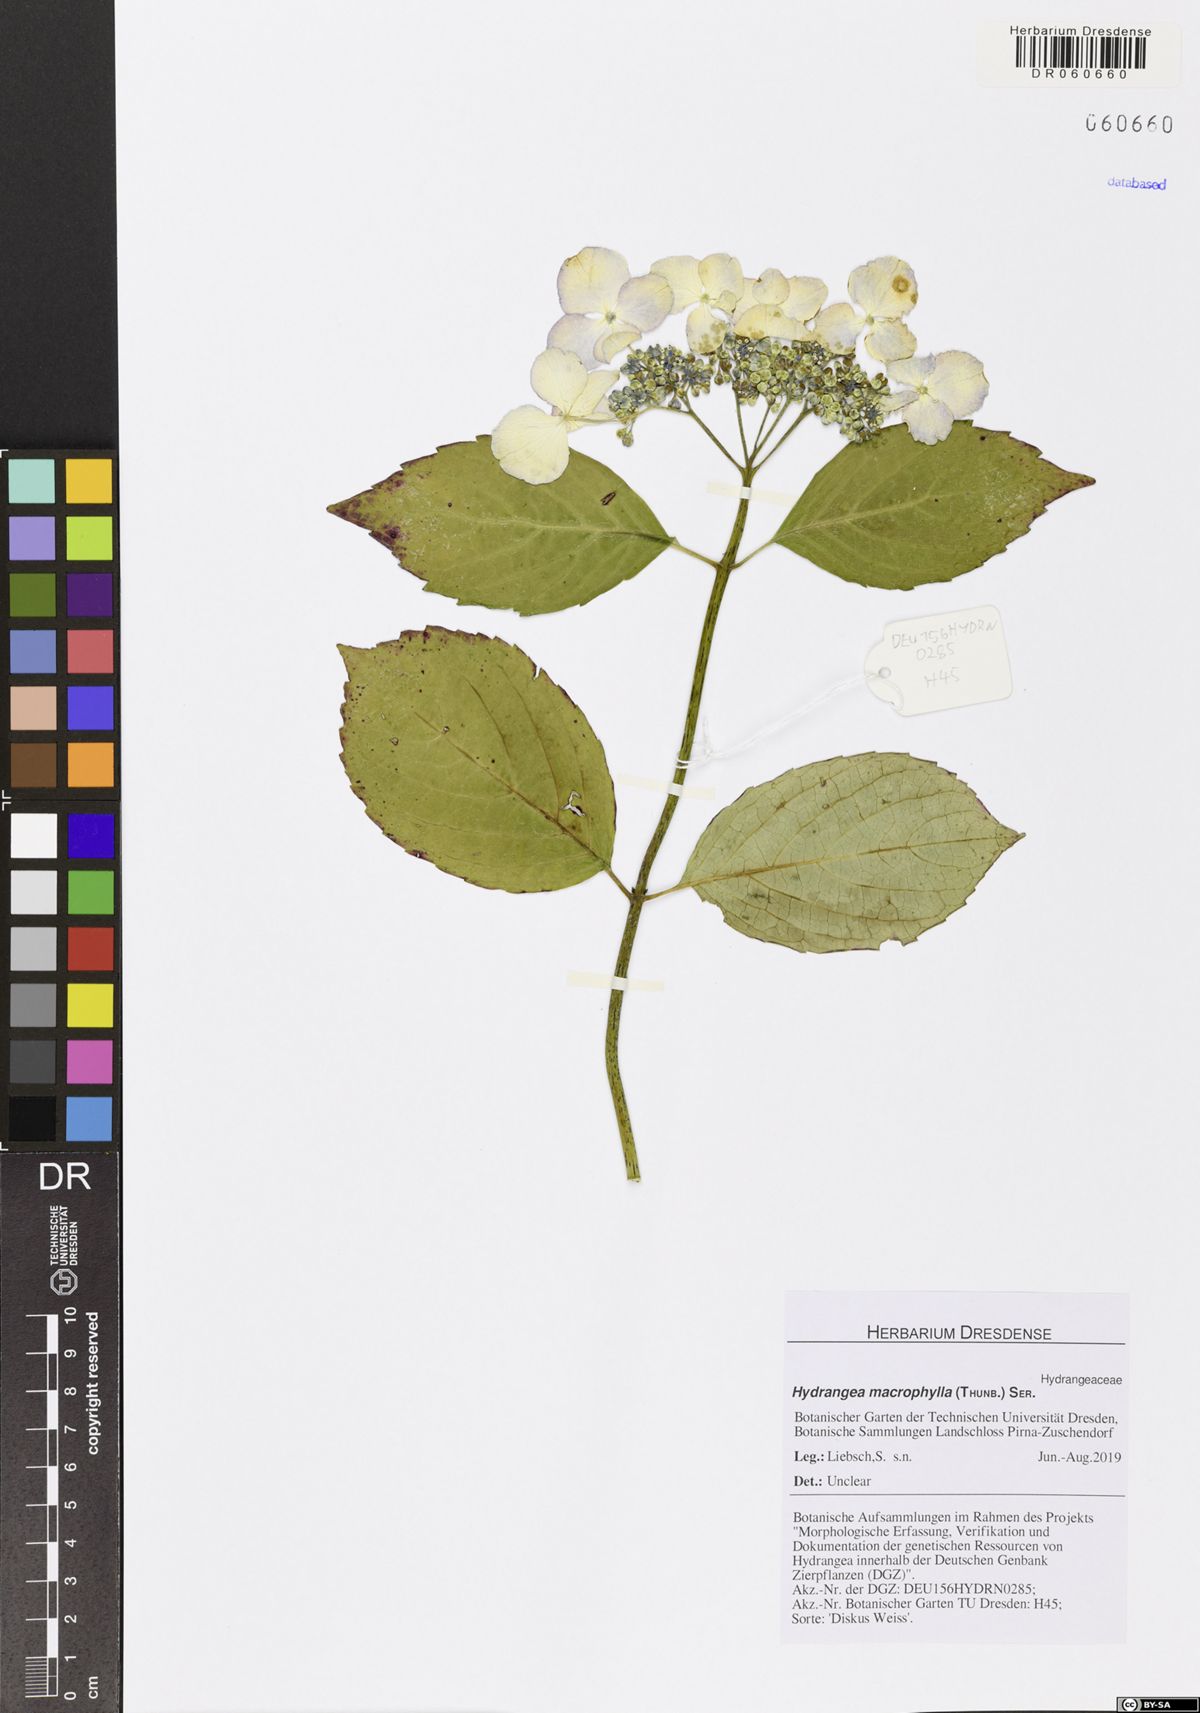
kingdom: Plantae
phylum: Tracheophyta
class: Magnoliopsida
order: Cornales
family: Hydrangeaceae
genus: Hydrangea
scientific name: Hydrangea macrophylla
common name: Hydrangea
